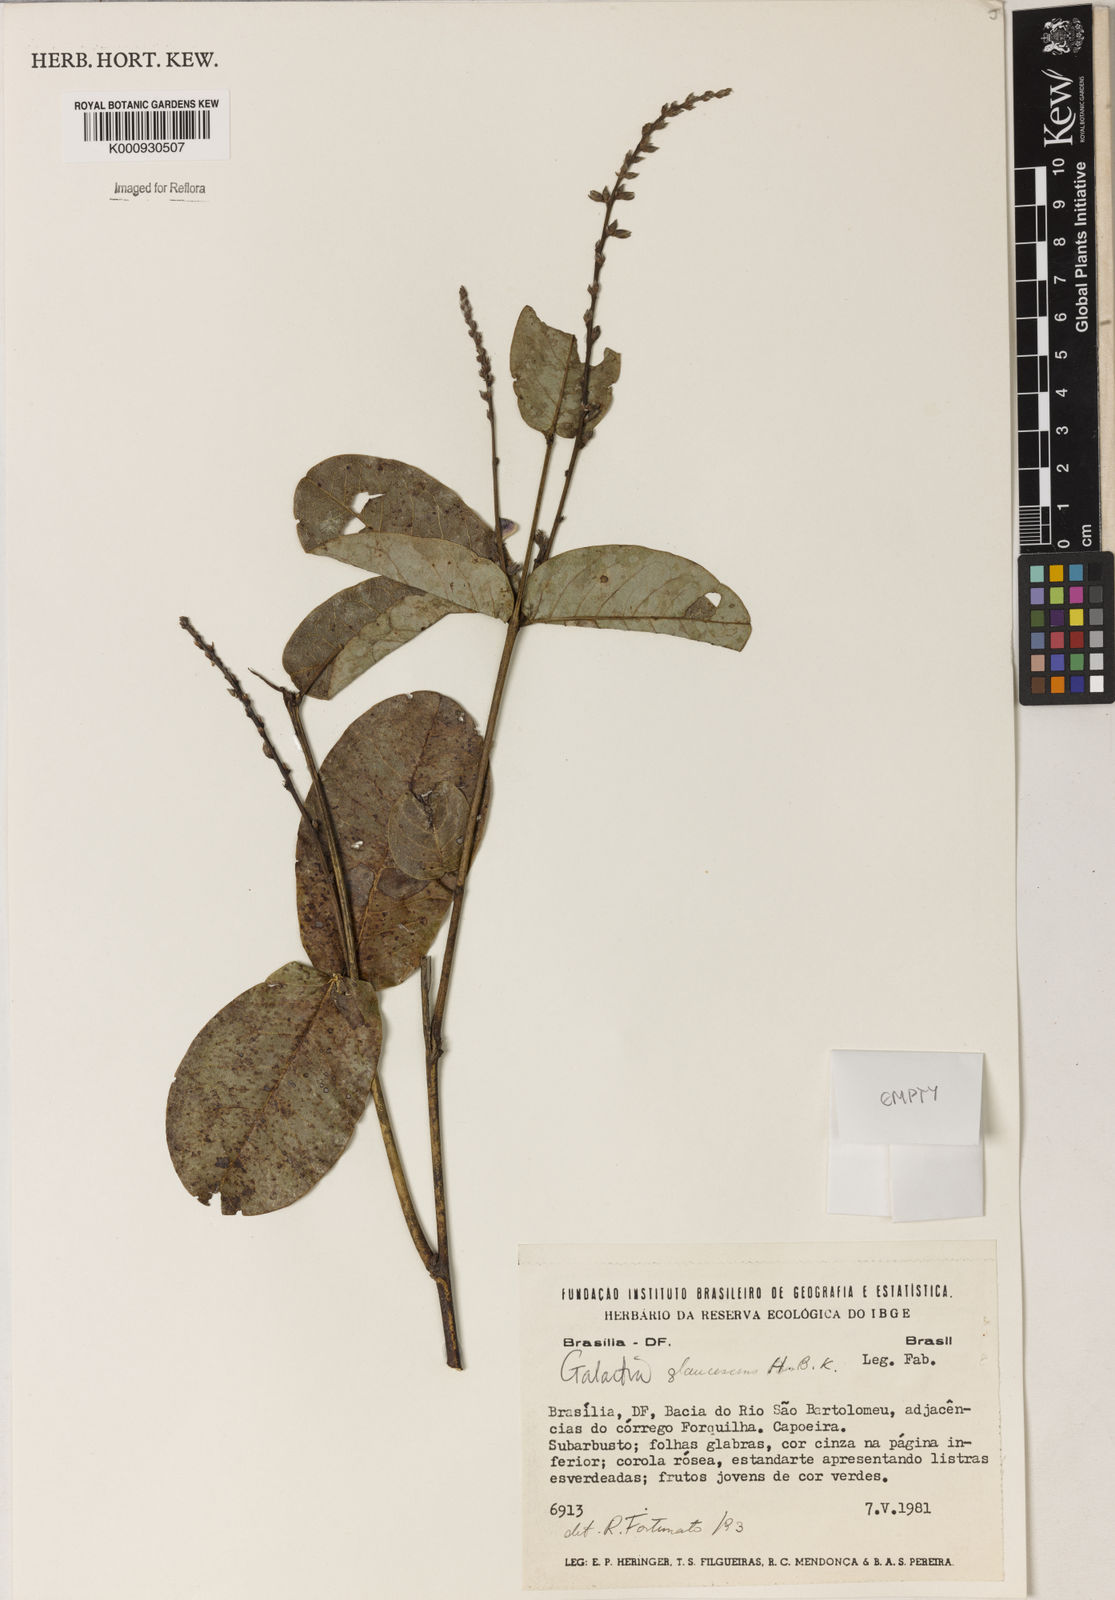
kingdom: Plantae
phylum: Tracheophyta
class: Magnoliopsida
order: Fabales
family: Fabaceae
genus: Galactia
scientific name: Galactia glaucescens
